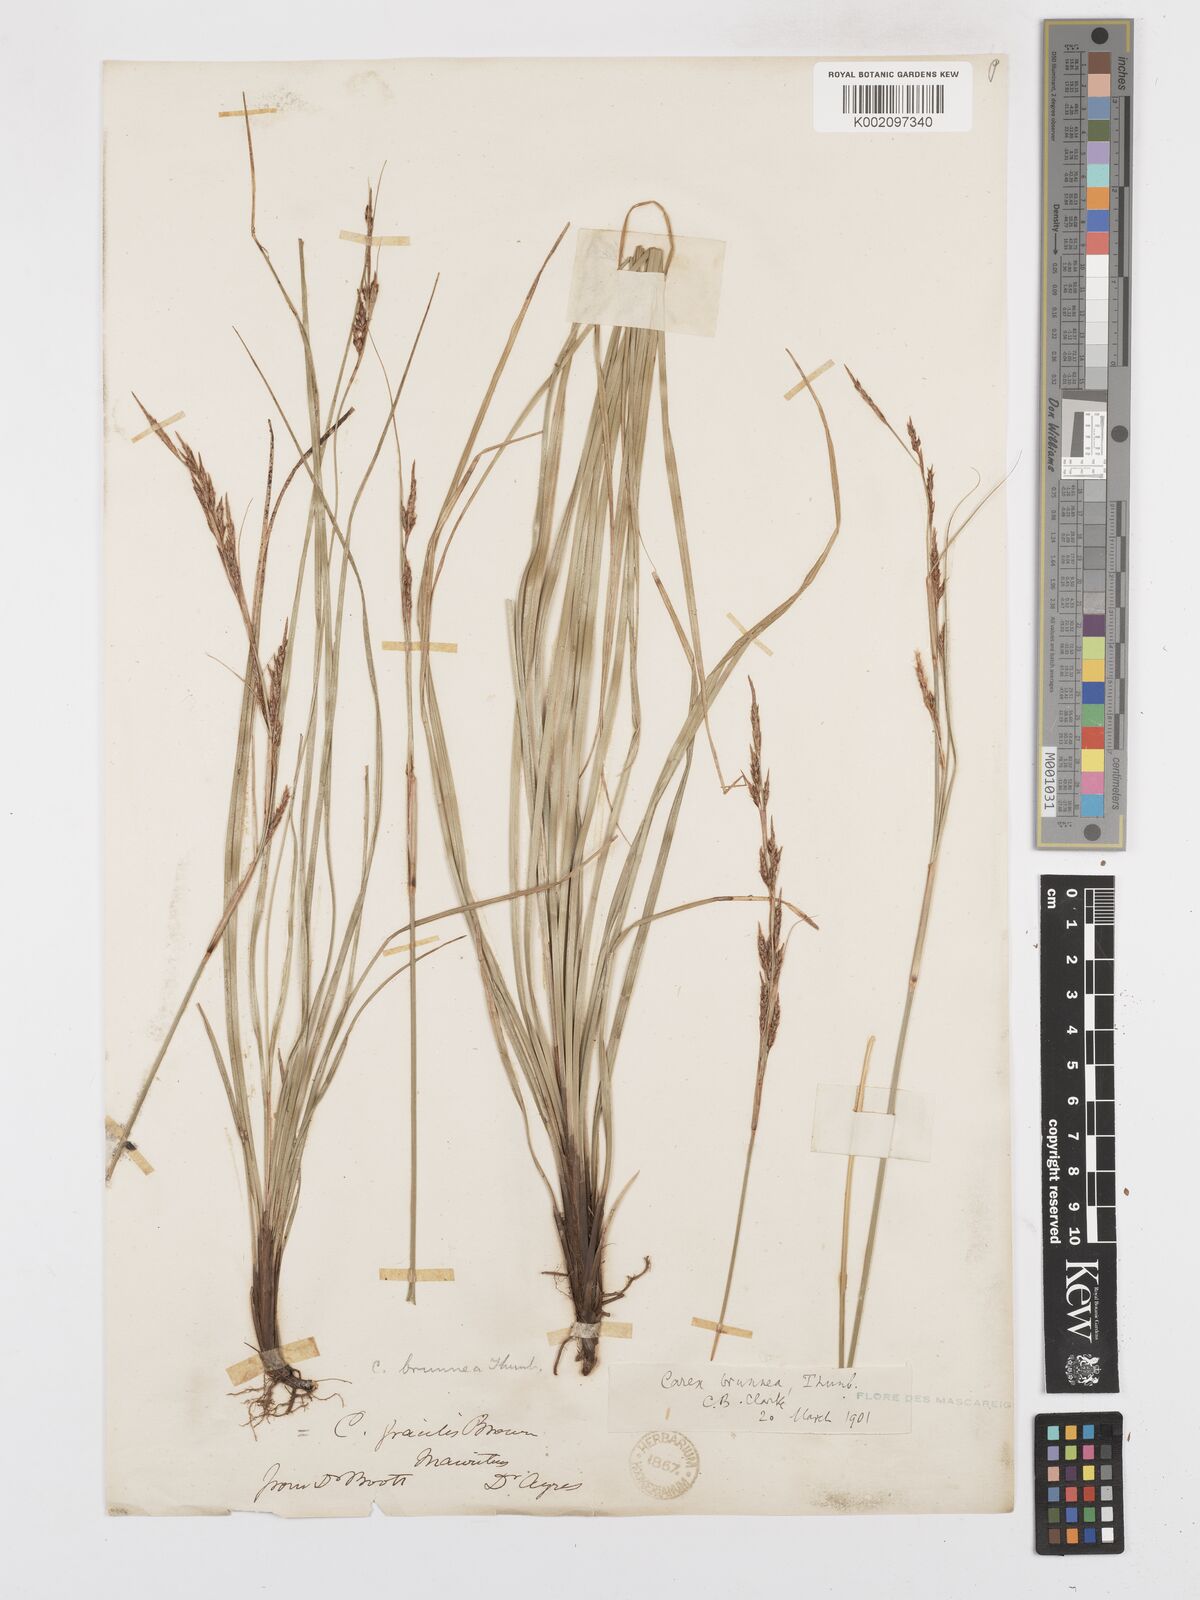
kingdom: Plantae
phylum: Tracheophyta
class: Liliopsida
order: Poales
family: Cyperaceae
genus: Carex
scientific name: Carex brunnea
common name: Greater brown sedge
